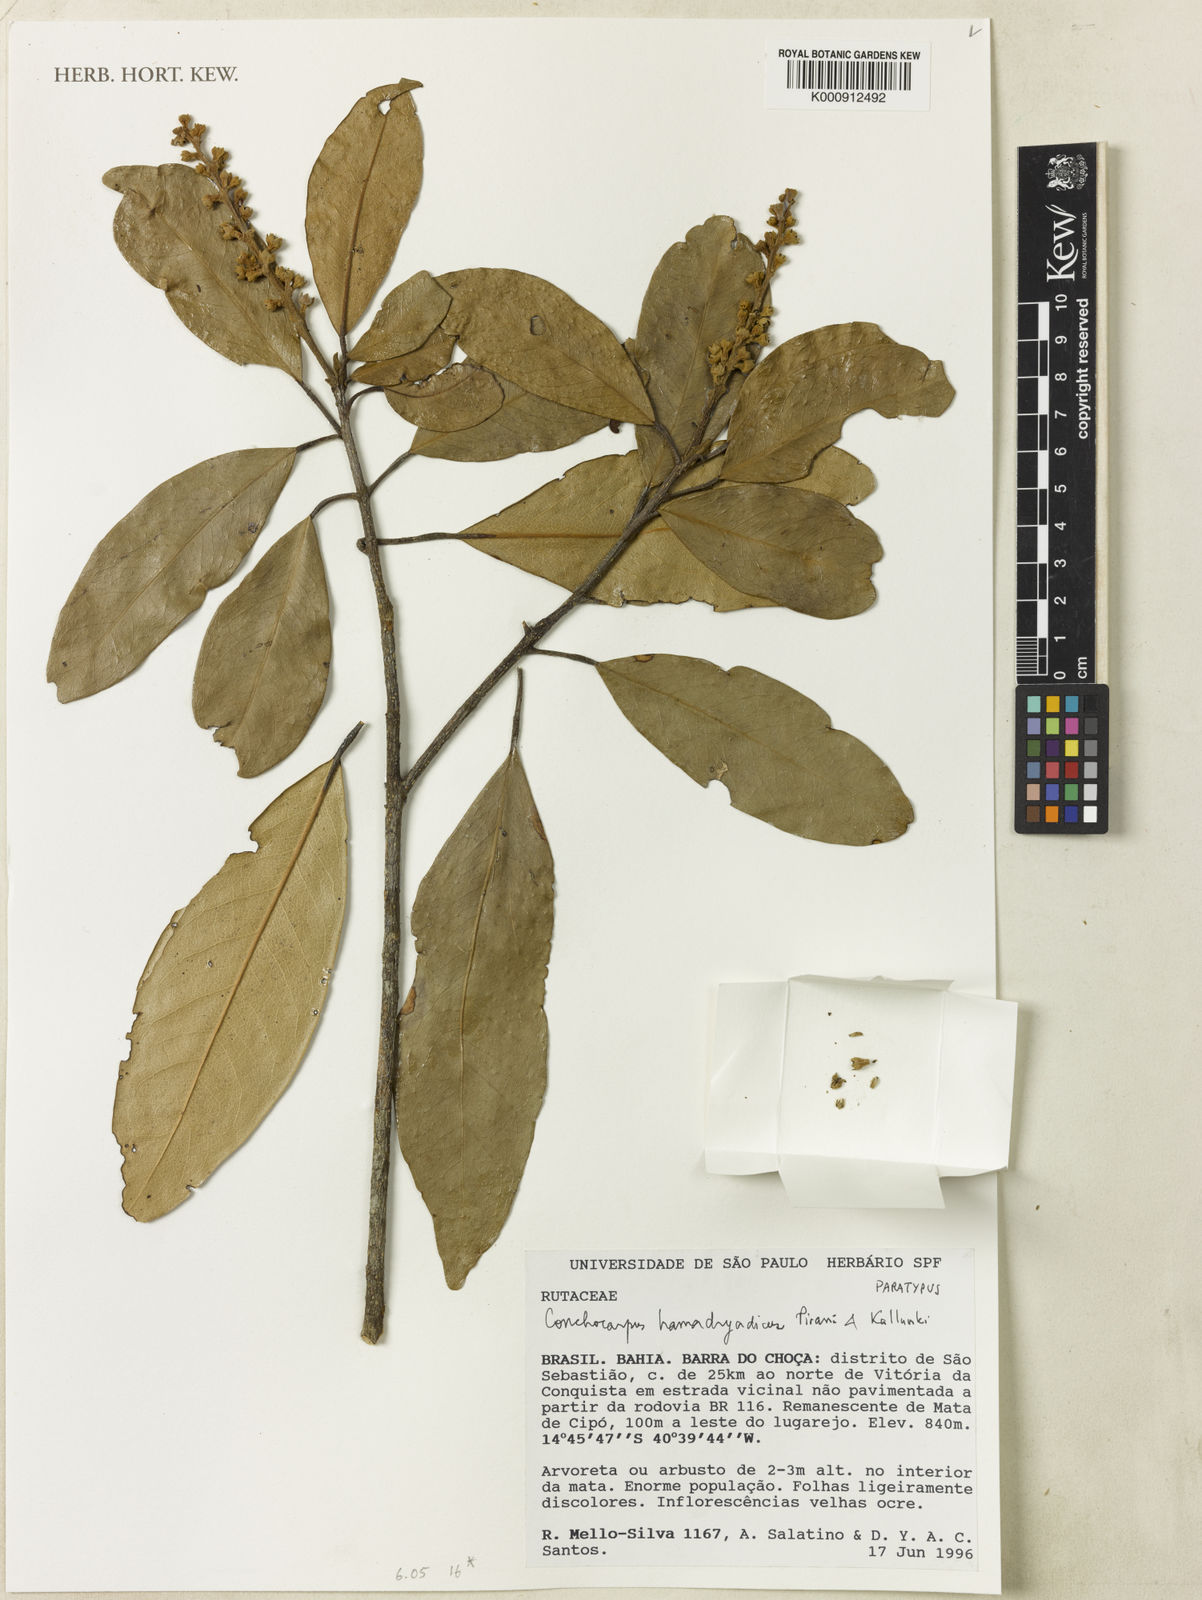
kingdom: Plantae
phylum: Tracheophyta
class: Magnoliopsida
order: Sapindales
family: Rutaceae
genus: Conchocarpus
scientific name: Conchocarpus hamadryadicus
